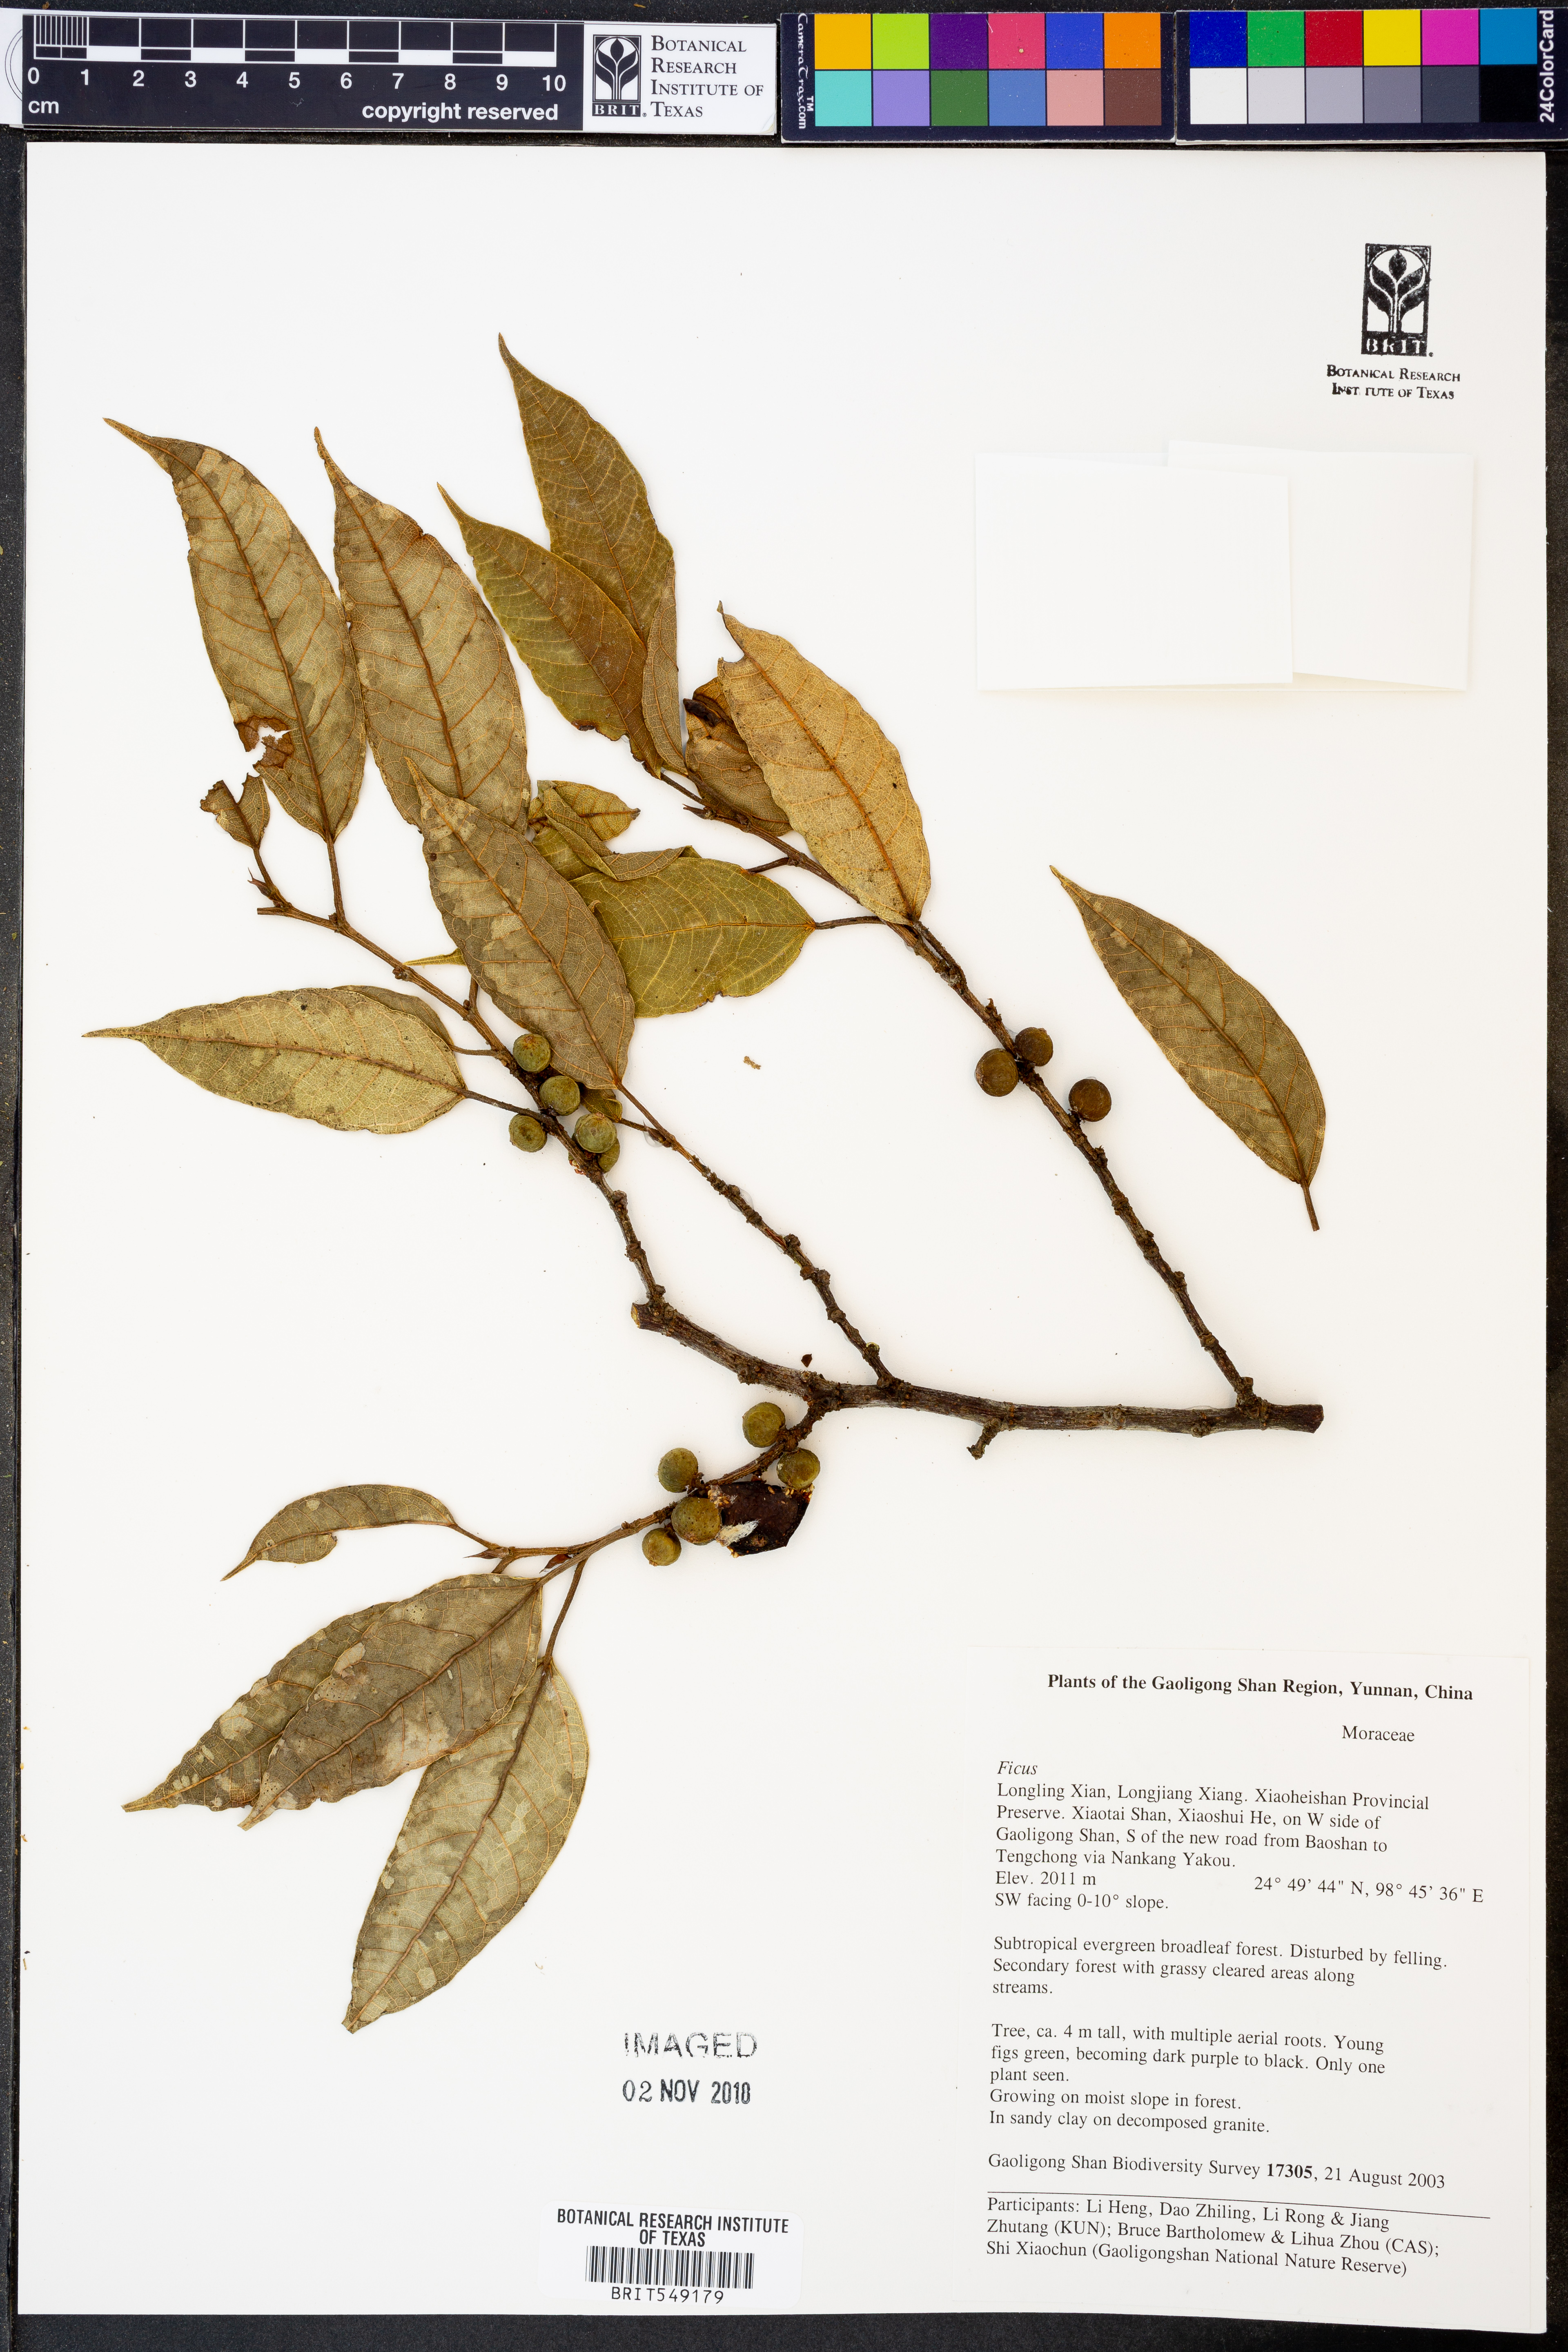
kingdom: Plantae
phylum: Tracheophyta
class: Magnoliopsida
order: Rosales
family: Moraceae
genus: Ficus
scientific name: Ficus
